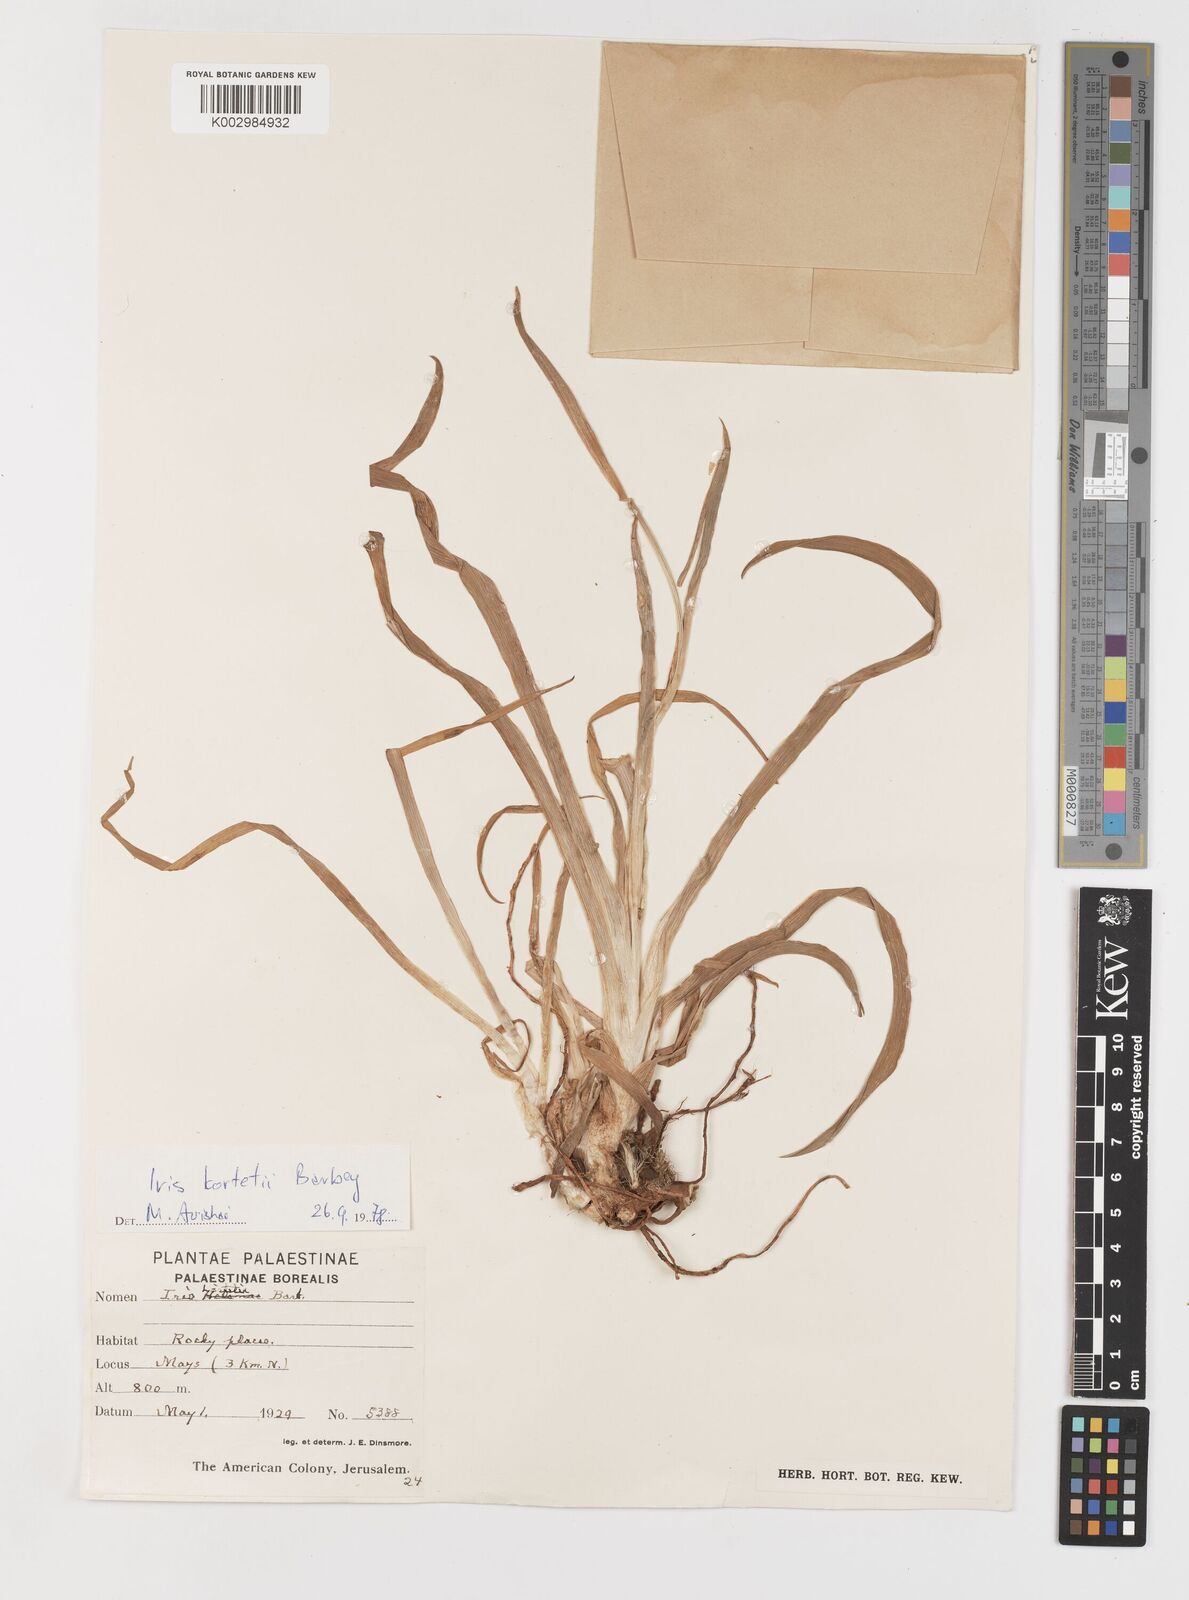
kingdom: Plantae
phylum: Tracheophyta
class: Liliopsida
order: Asparagales
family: Iridaceae
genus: Iris
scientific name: Iris
